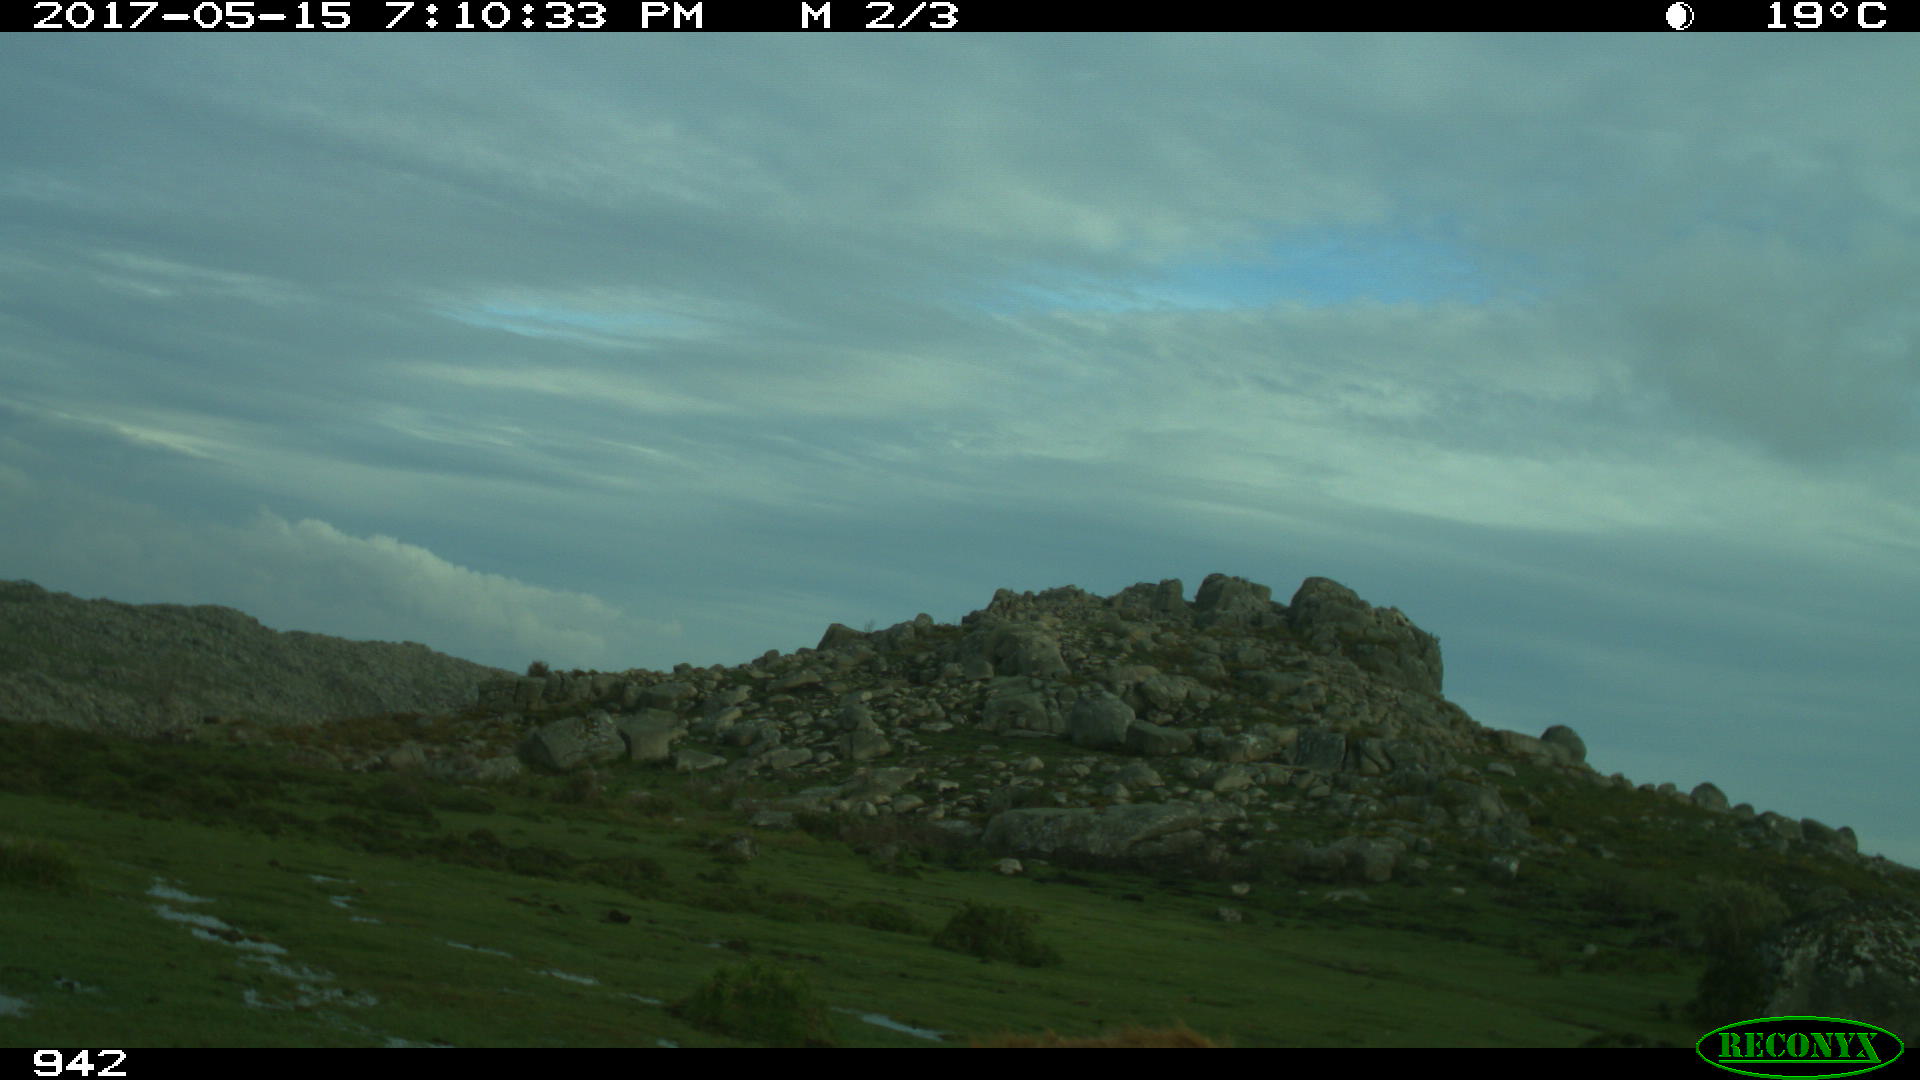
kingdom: Animalia
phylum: Chordata
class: Mammalia
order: Artiodactyla
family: Bovidae
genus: Bos
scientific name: Bos taurus
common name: Domesticated cattle
